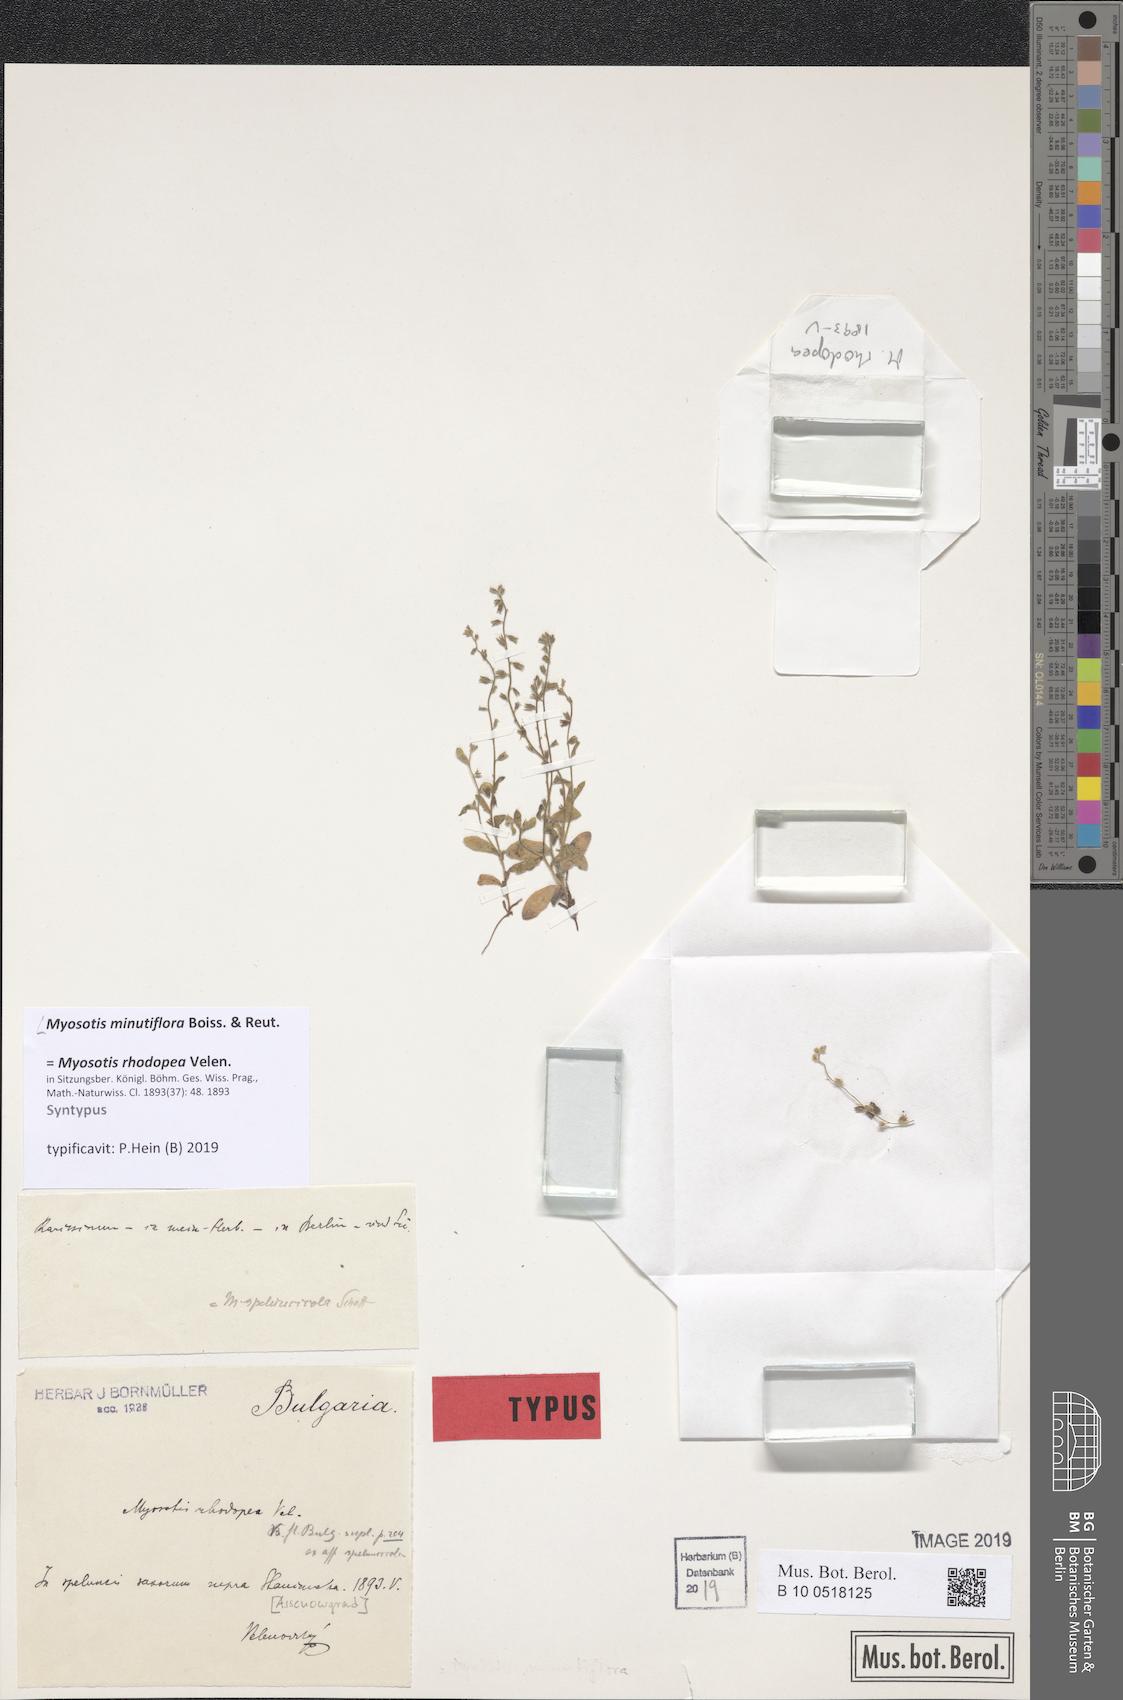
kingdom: Plantae
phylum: Tracheophyta
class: Magnoliopsida
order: Boraginales
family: Boraginaceae
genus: Myosotis
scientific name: Myosotis minutiflora
